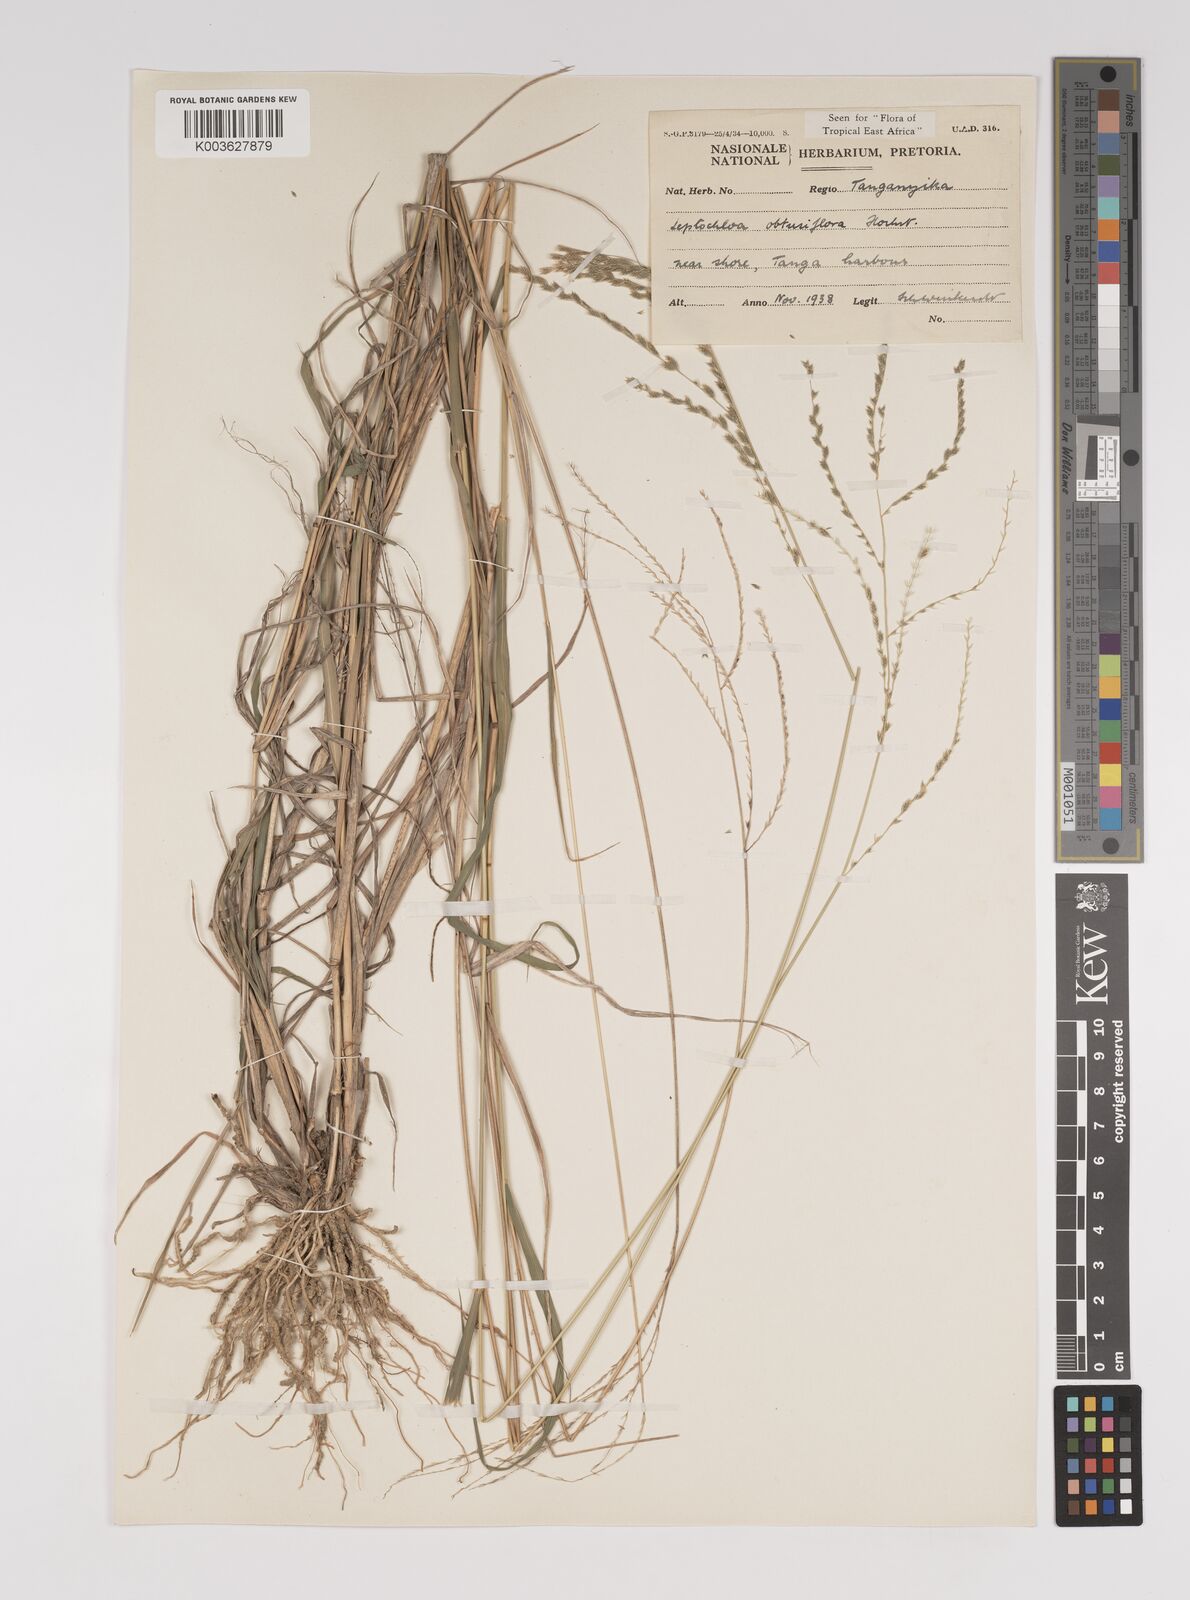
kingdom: Plantae
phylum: Tracheophyta
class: Liliopsida
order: Poales
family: Poaceae
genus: Disakisperma
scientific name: Disakisperma obtusiflorum
